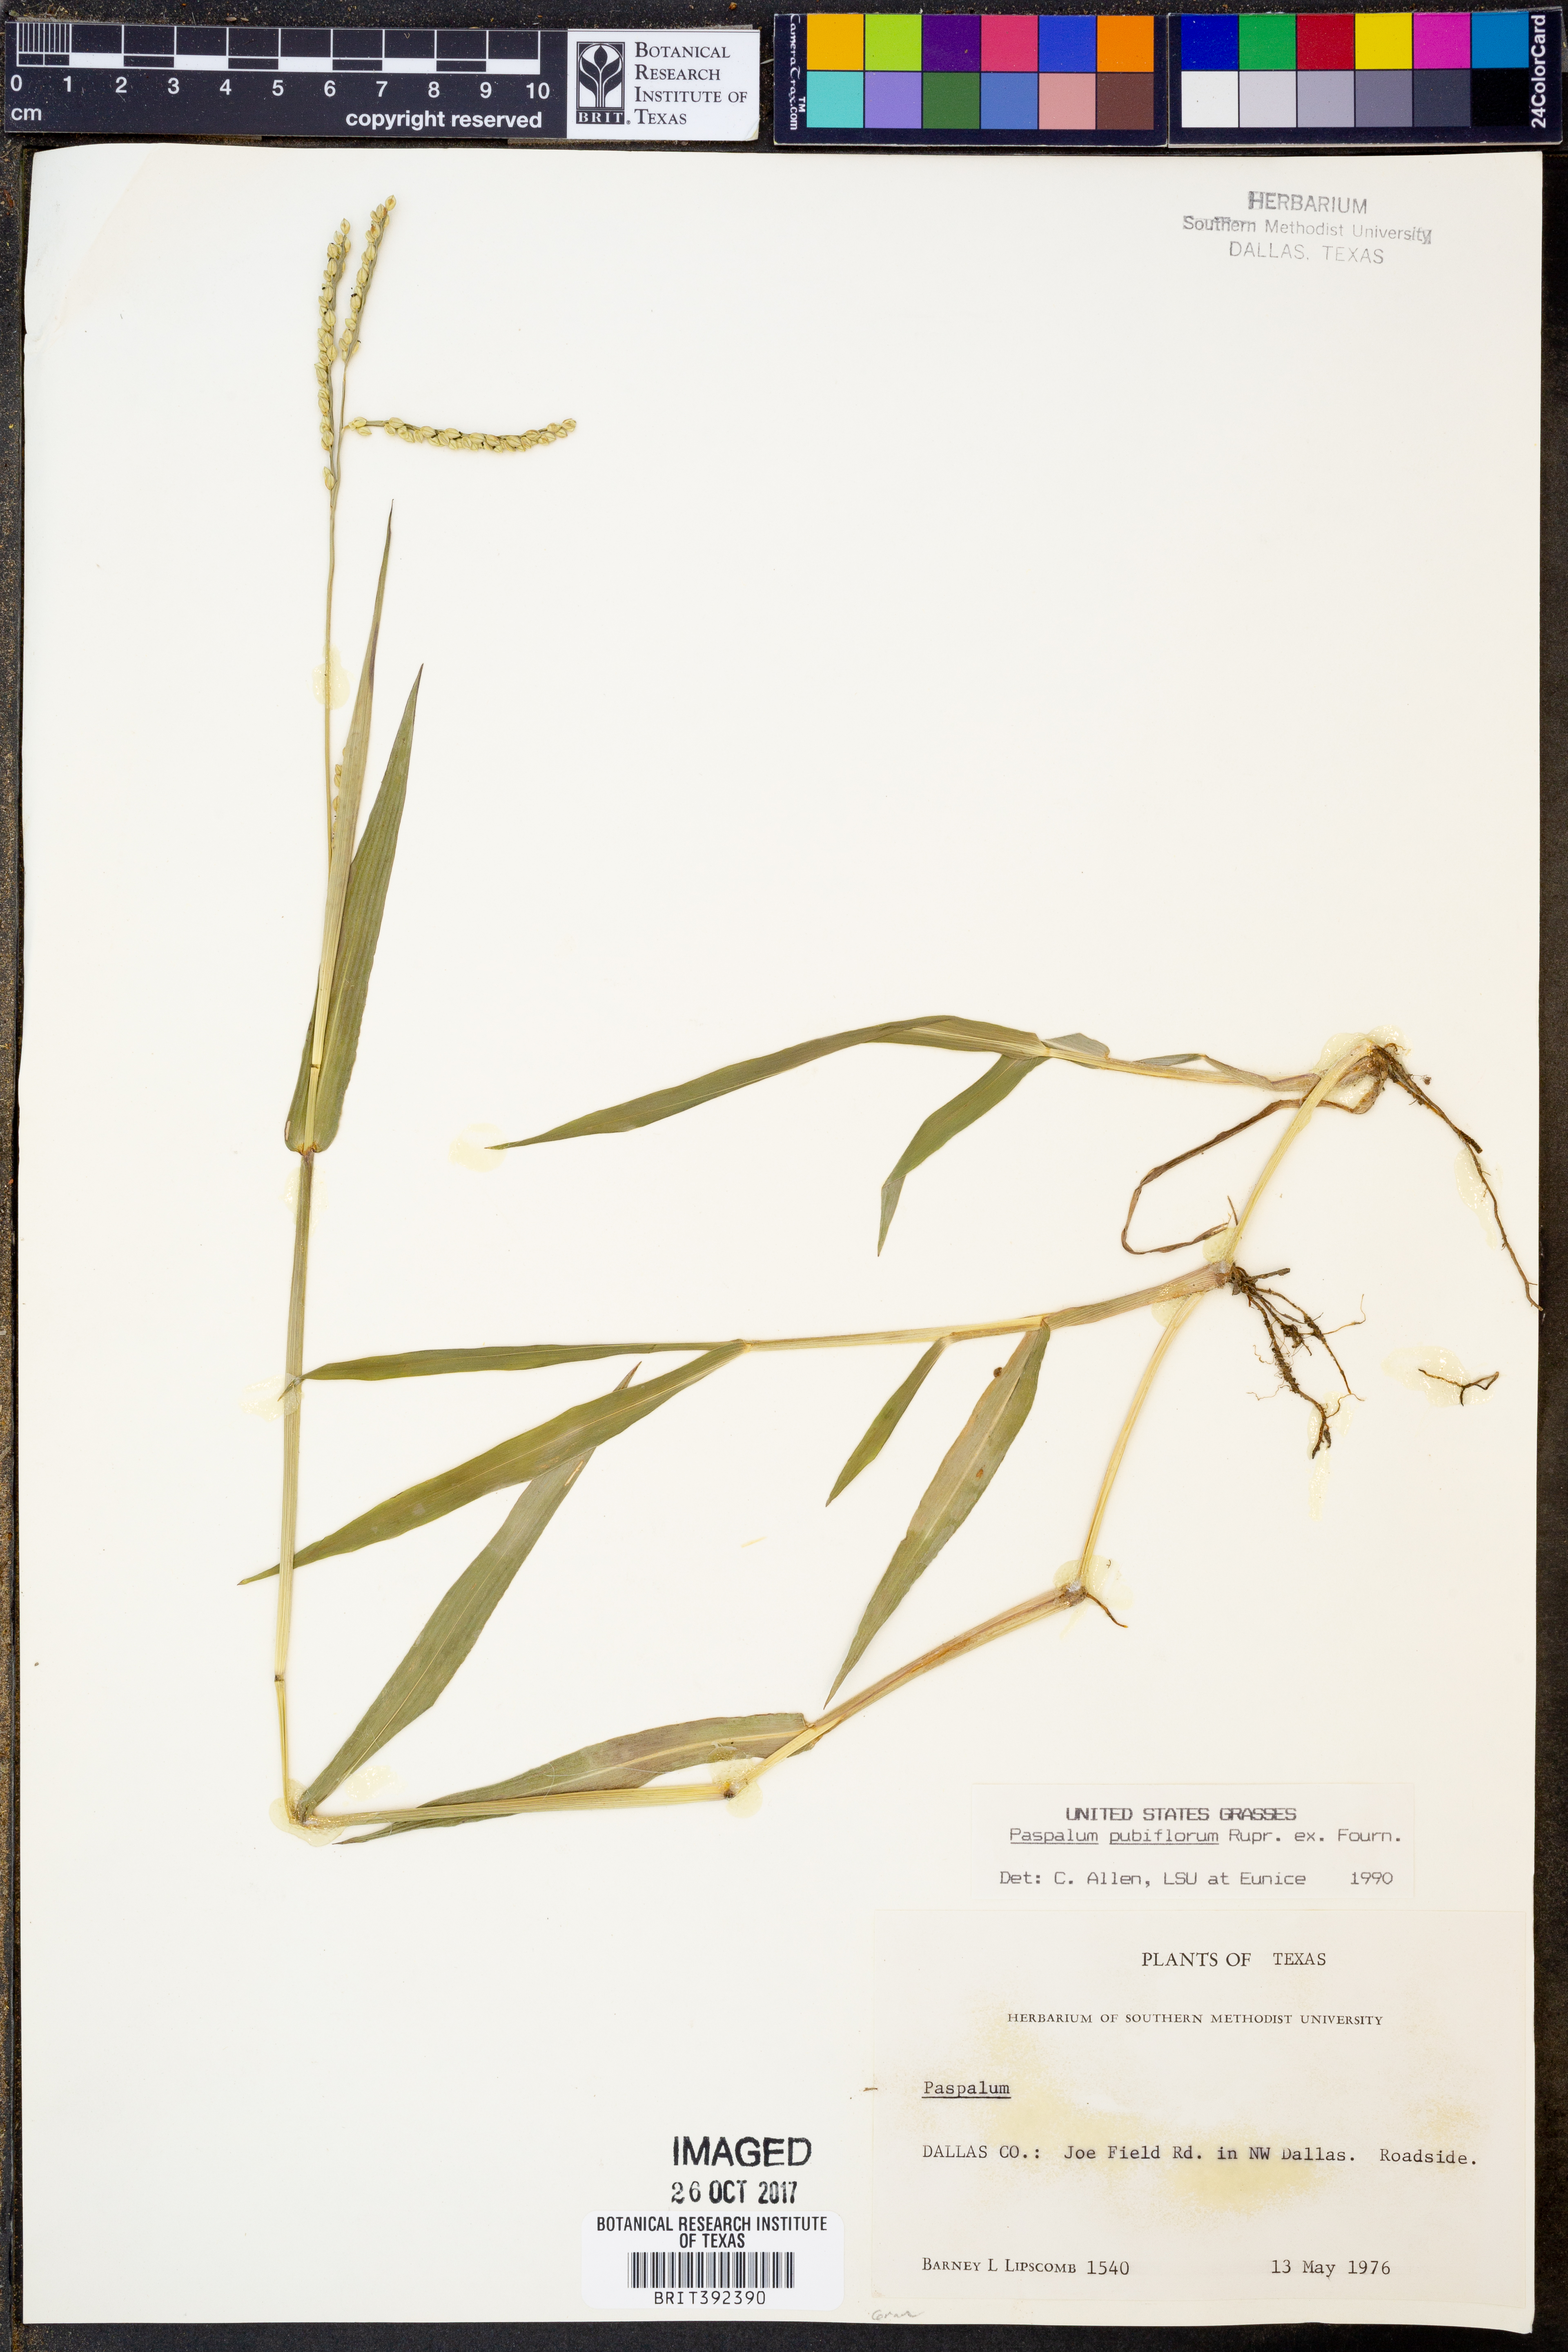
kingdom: Plantae
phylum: Tracheophyta
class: Liliopsida
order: Poales
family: Poaceae
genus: Paspalum
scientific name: Paspalum pubiflorum
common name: Hairy-seed paspalum
